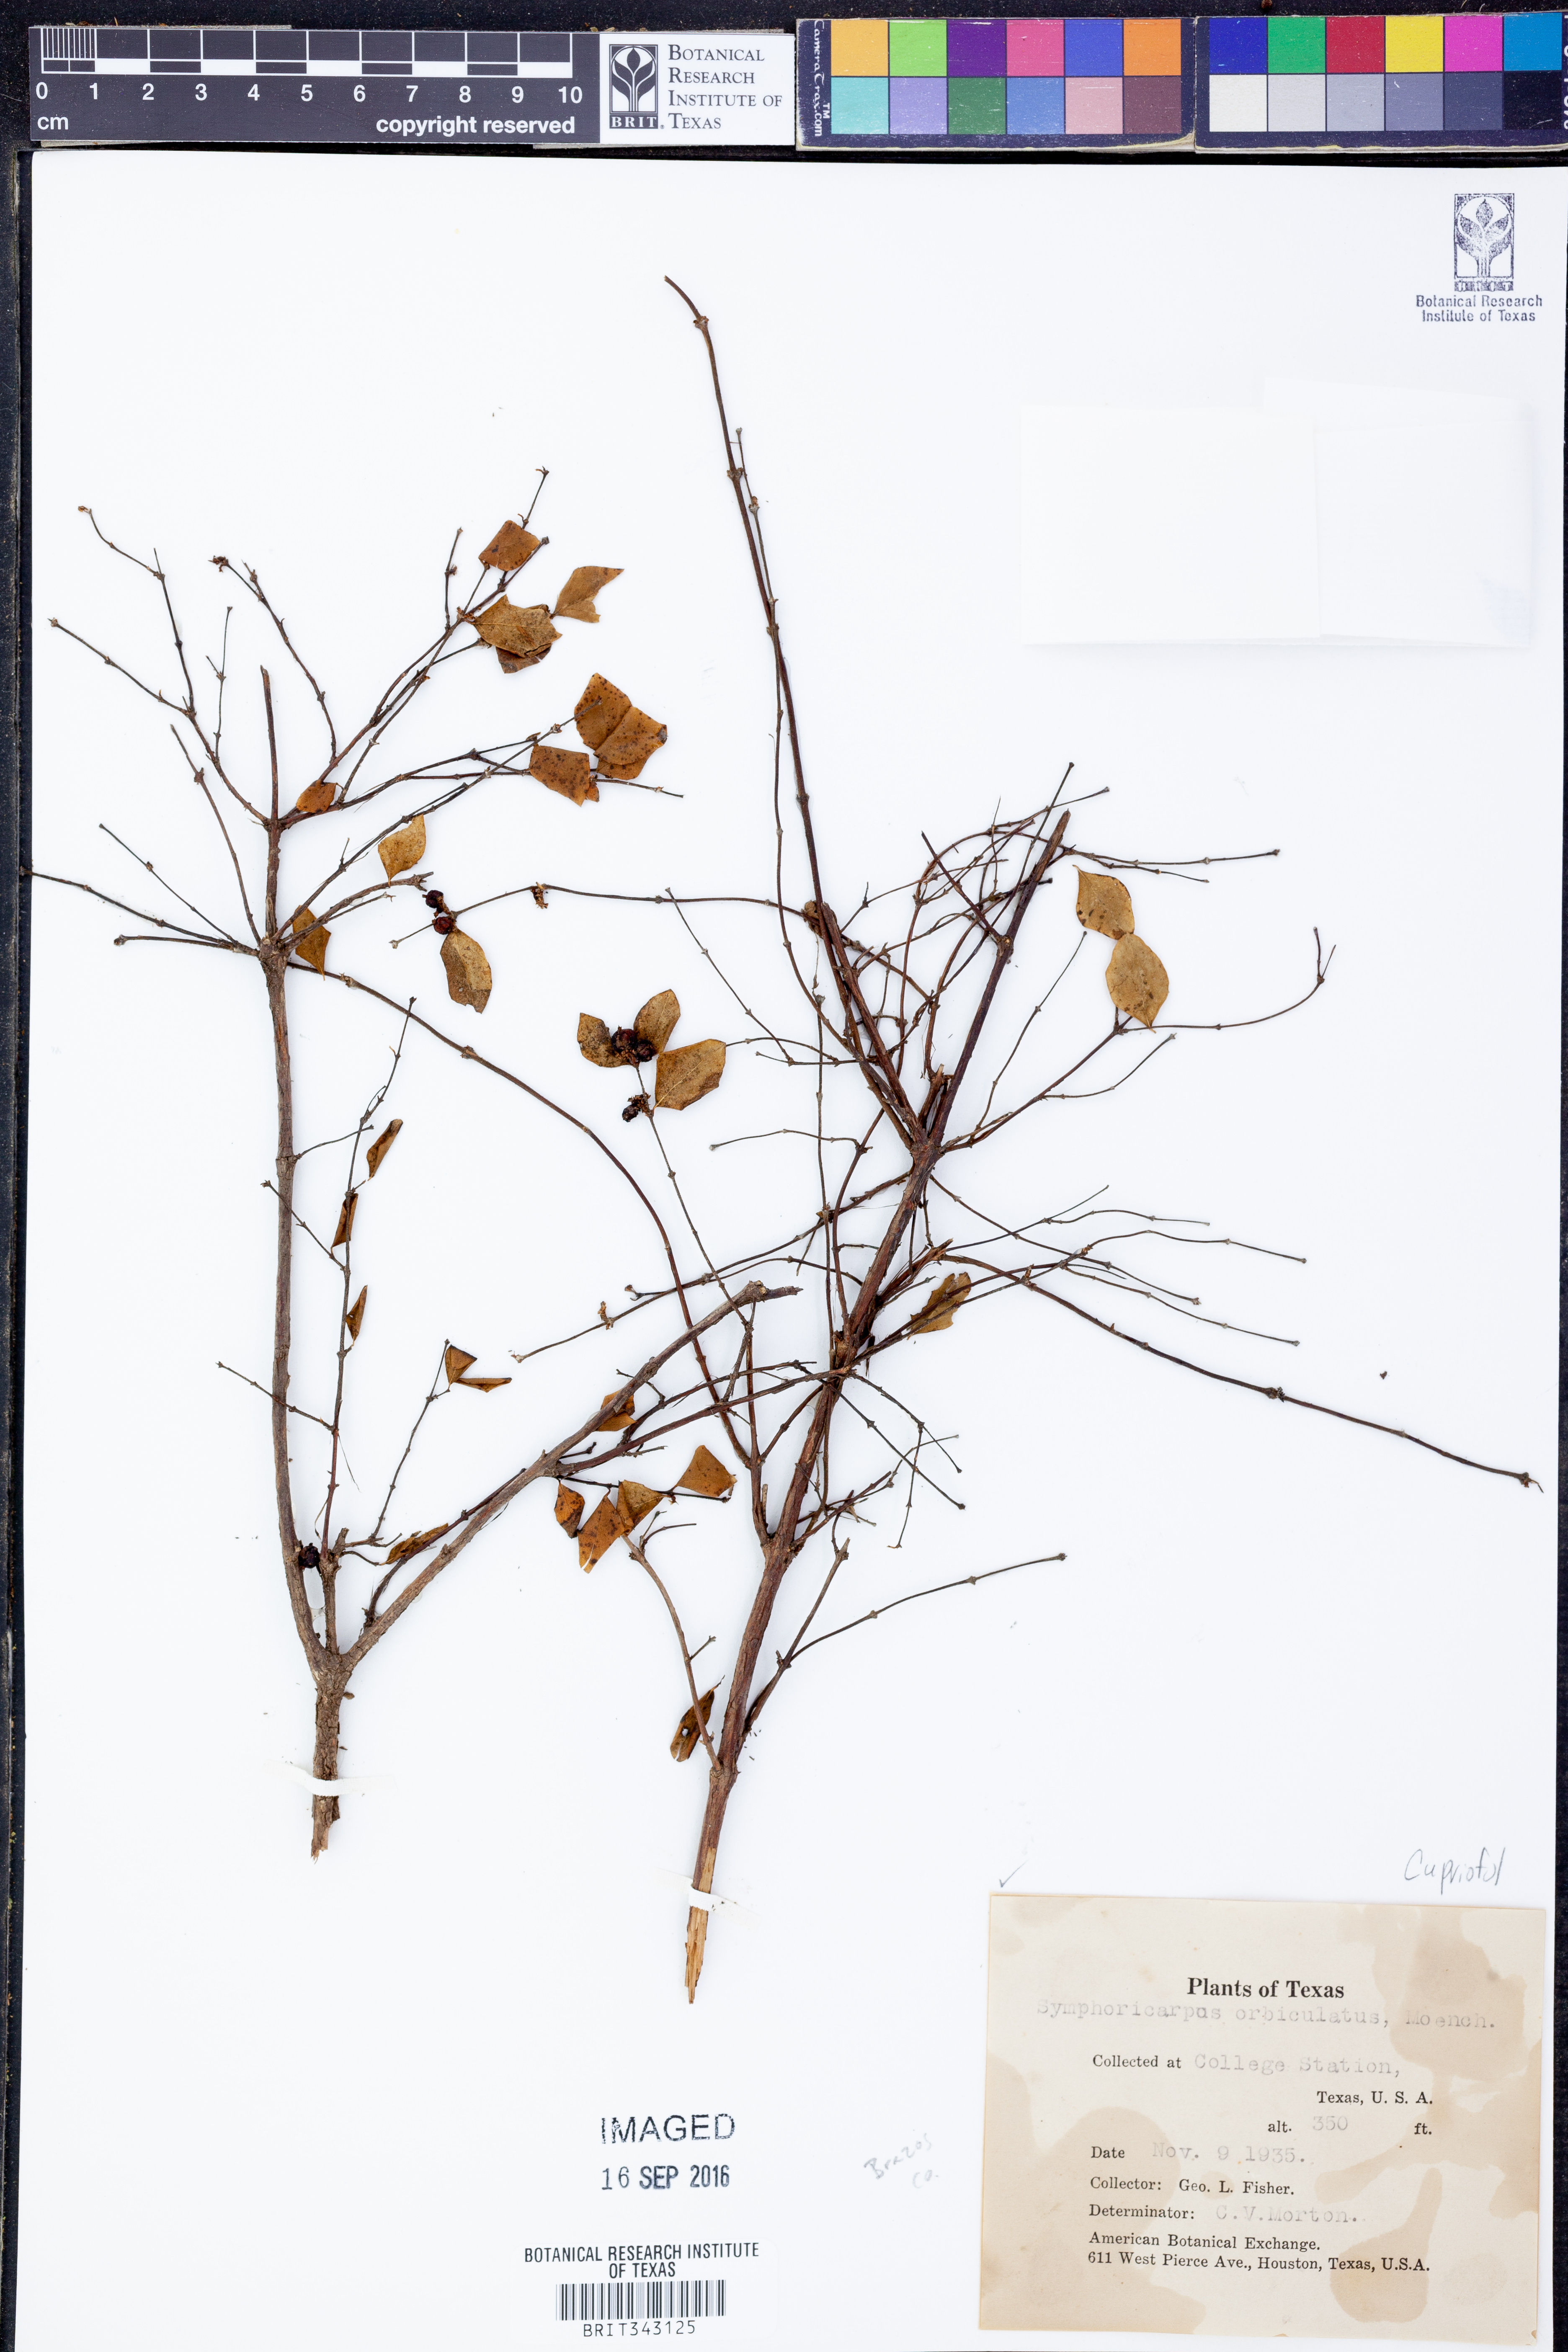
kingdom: Plantae
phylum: Tracheophyta
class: Magnoliopsida
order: Dipsacales
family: Caprifoliaceae
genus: Symphoricarpos
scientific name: Symphoricarpos orbiculatus
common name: Coralberry
